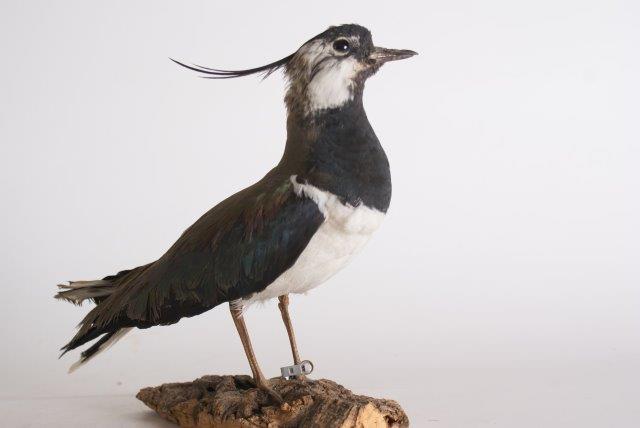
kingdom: Animalia
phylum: Chordata
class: Aves
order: Charadriiformes
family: Charadriidae
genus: Vanellus
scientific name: Vanellus vanellus
